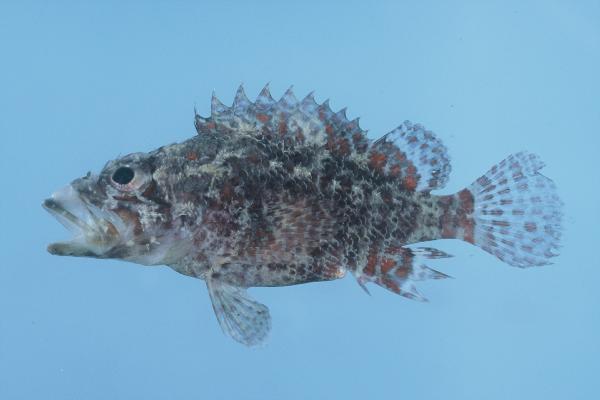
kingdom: Animalia
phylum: Chordata
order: Scorpaeniformes
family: Scorpaenidae
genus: Scorpaenodes
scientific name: Scorpaenodes guamensis
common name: Guam scorpionfish
